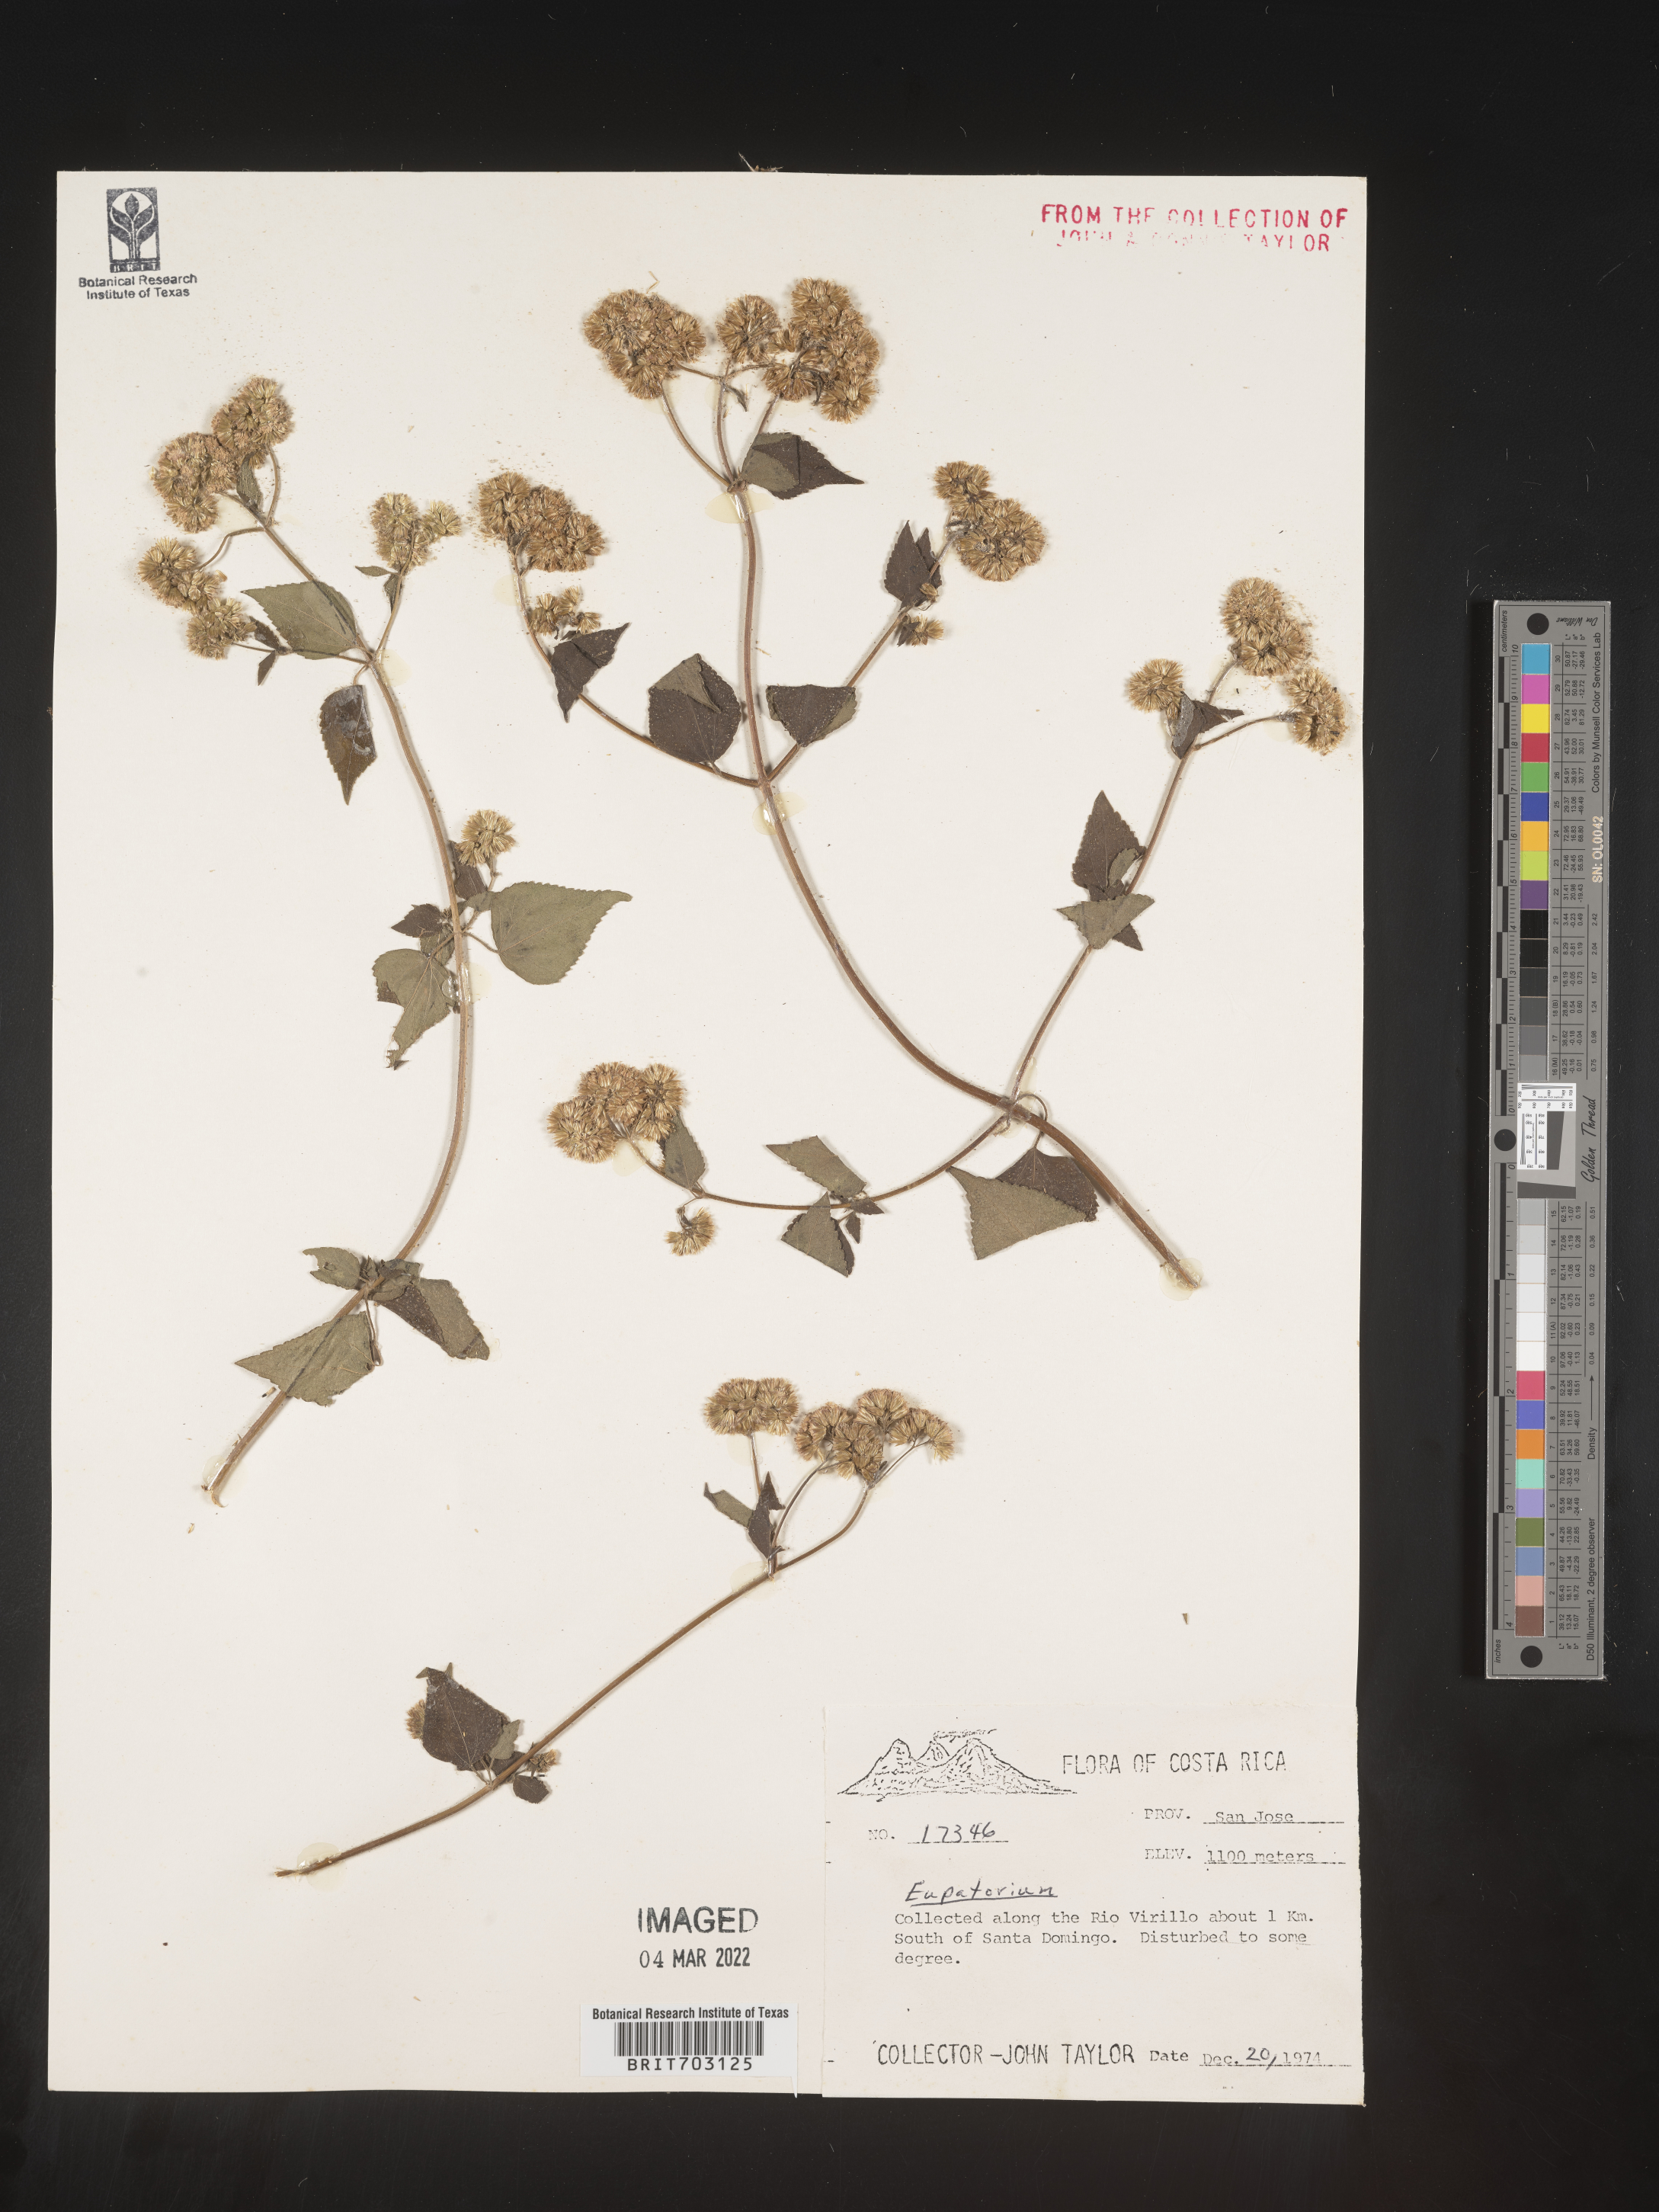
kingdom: Plantae
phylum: Tracheophyta
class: Magnoliopsida
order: Asterales
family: Asteraceae
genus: Eupatorium
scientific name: Eupatorium
